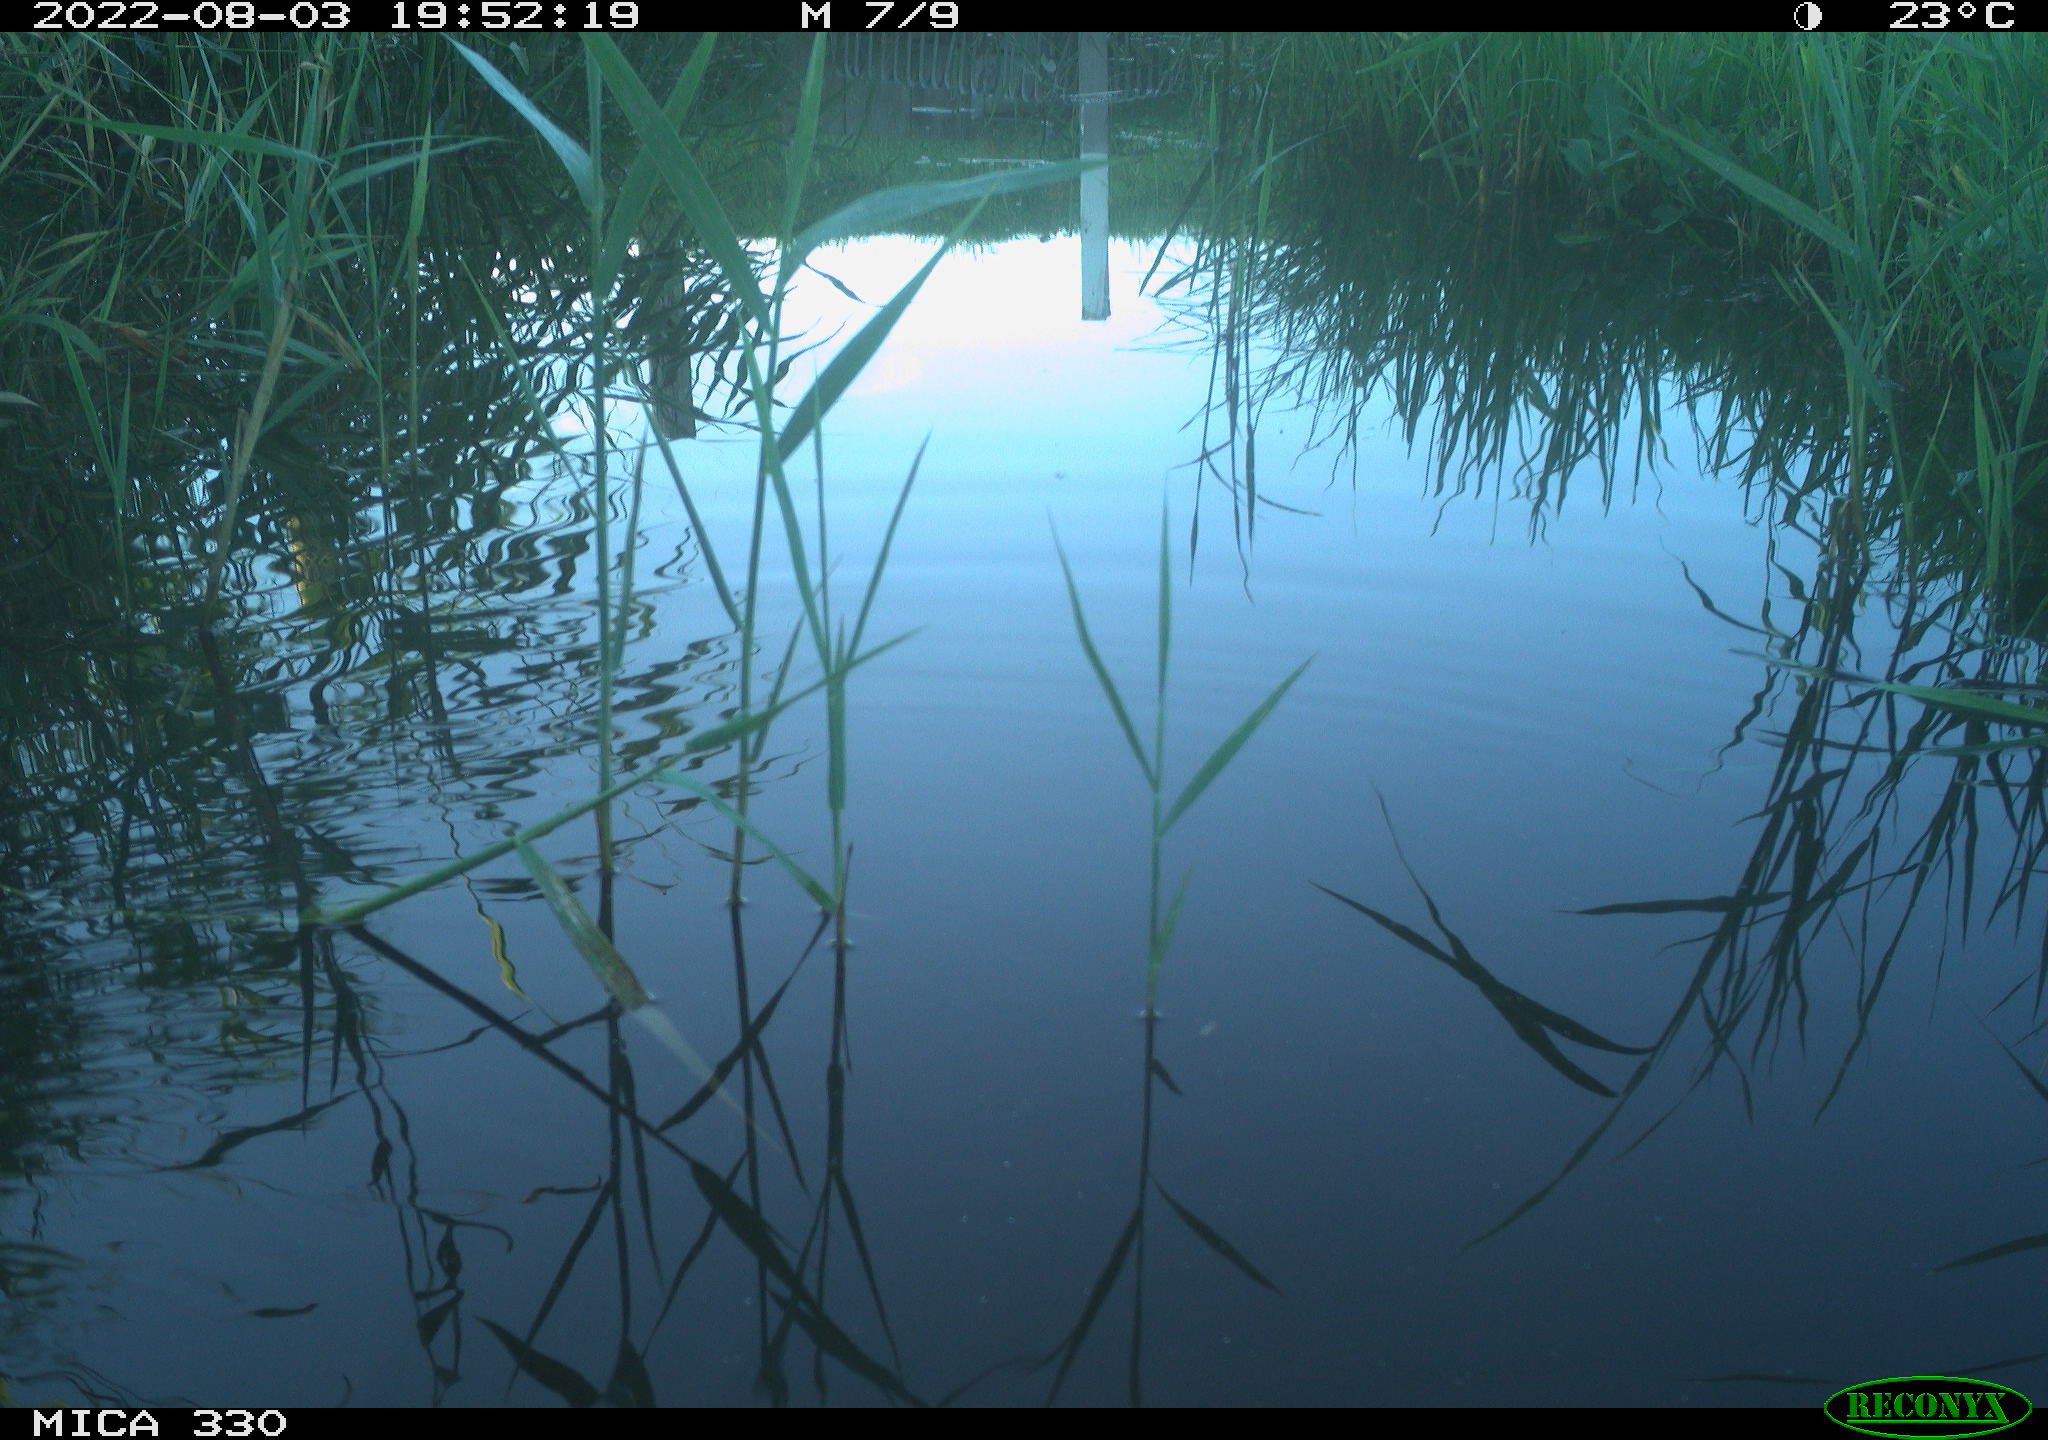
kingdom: Animalia
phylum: Chordata
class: Aves
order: Gruiformes
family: Rallidae
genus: Gallinula
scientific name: Gallinula chloropus
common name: Common moorhen
